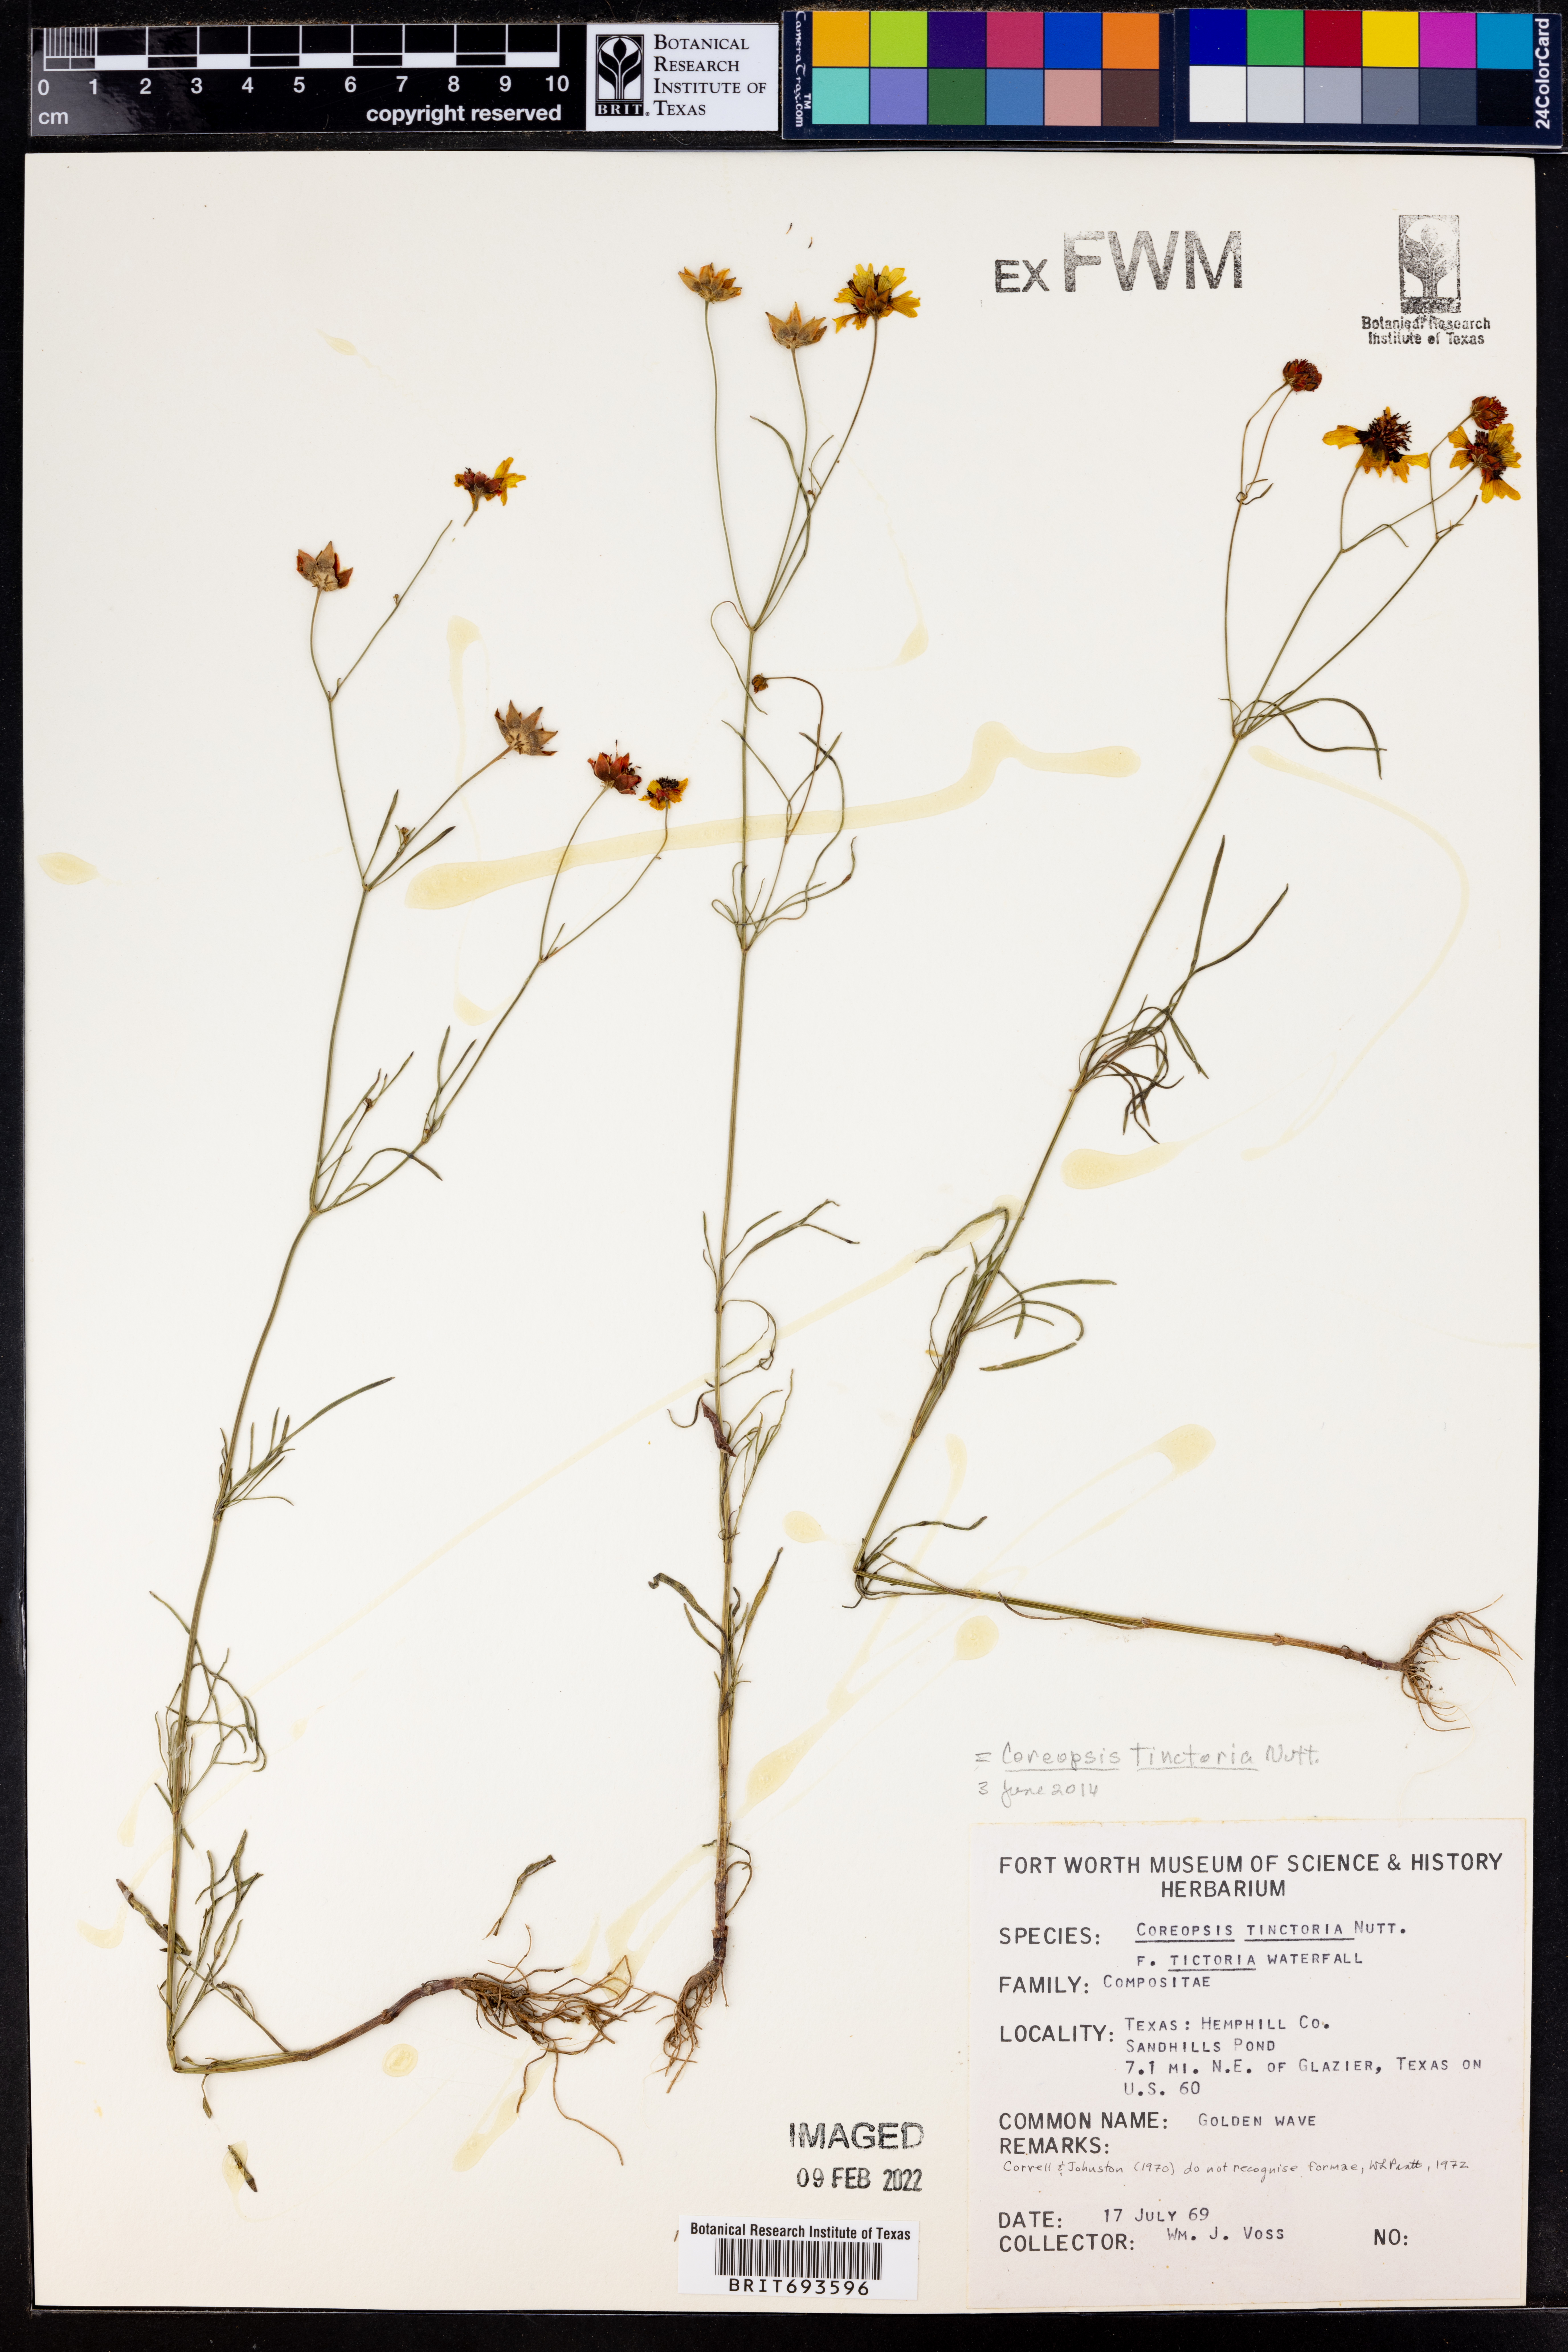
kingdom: Plantae
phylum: Tracheophyta
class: Magnoliopsida
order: Asterales
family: Asteraceae
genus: Coreopsis
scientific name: Coreopsis tinctoria
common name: Garden tickseed
